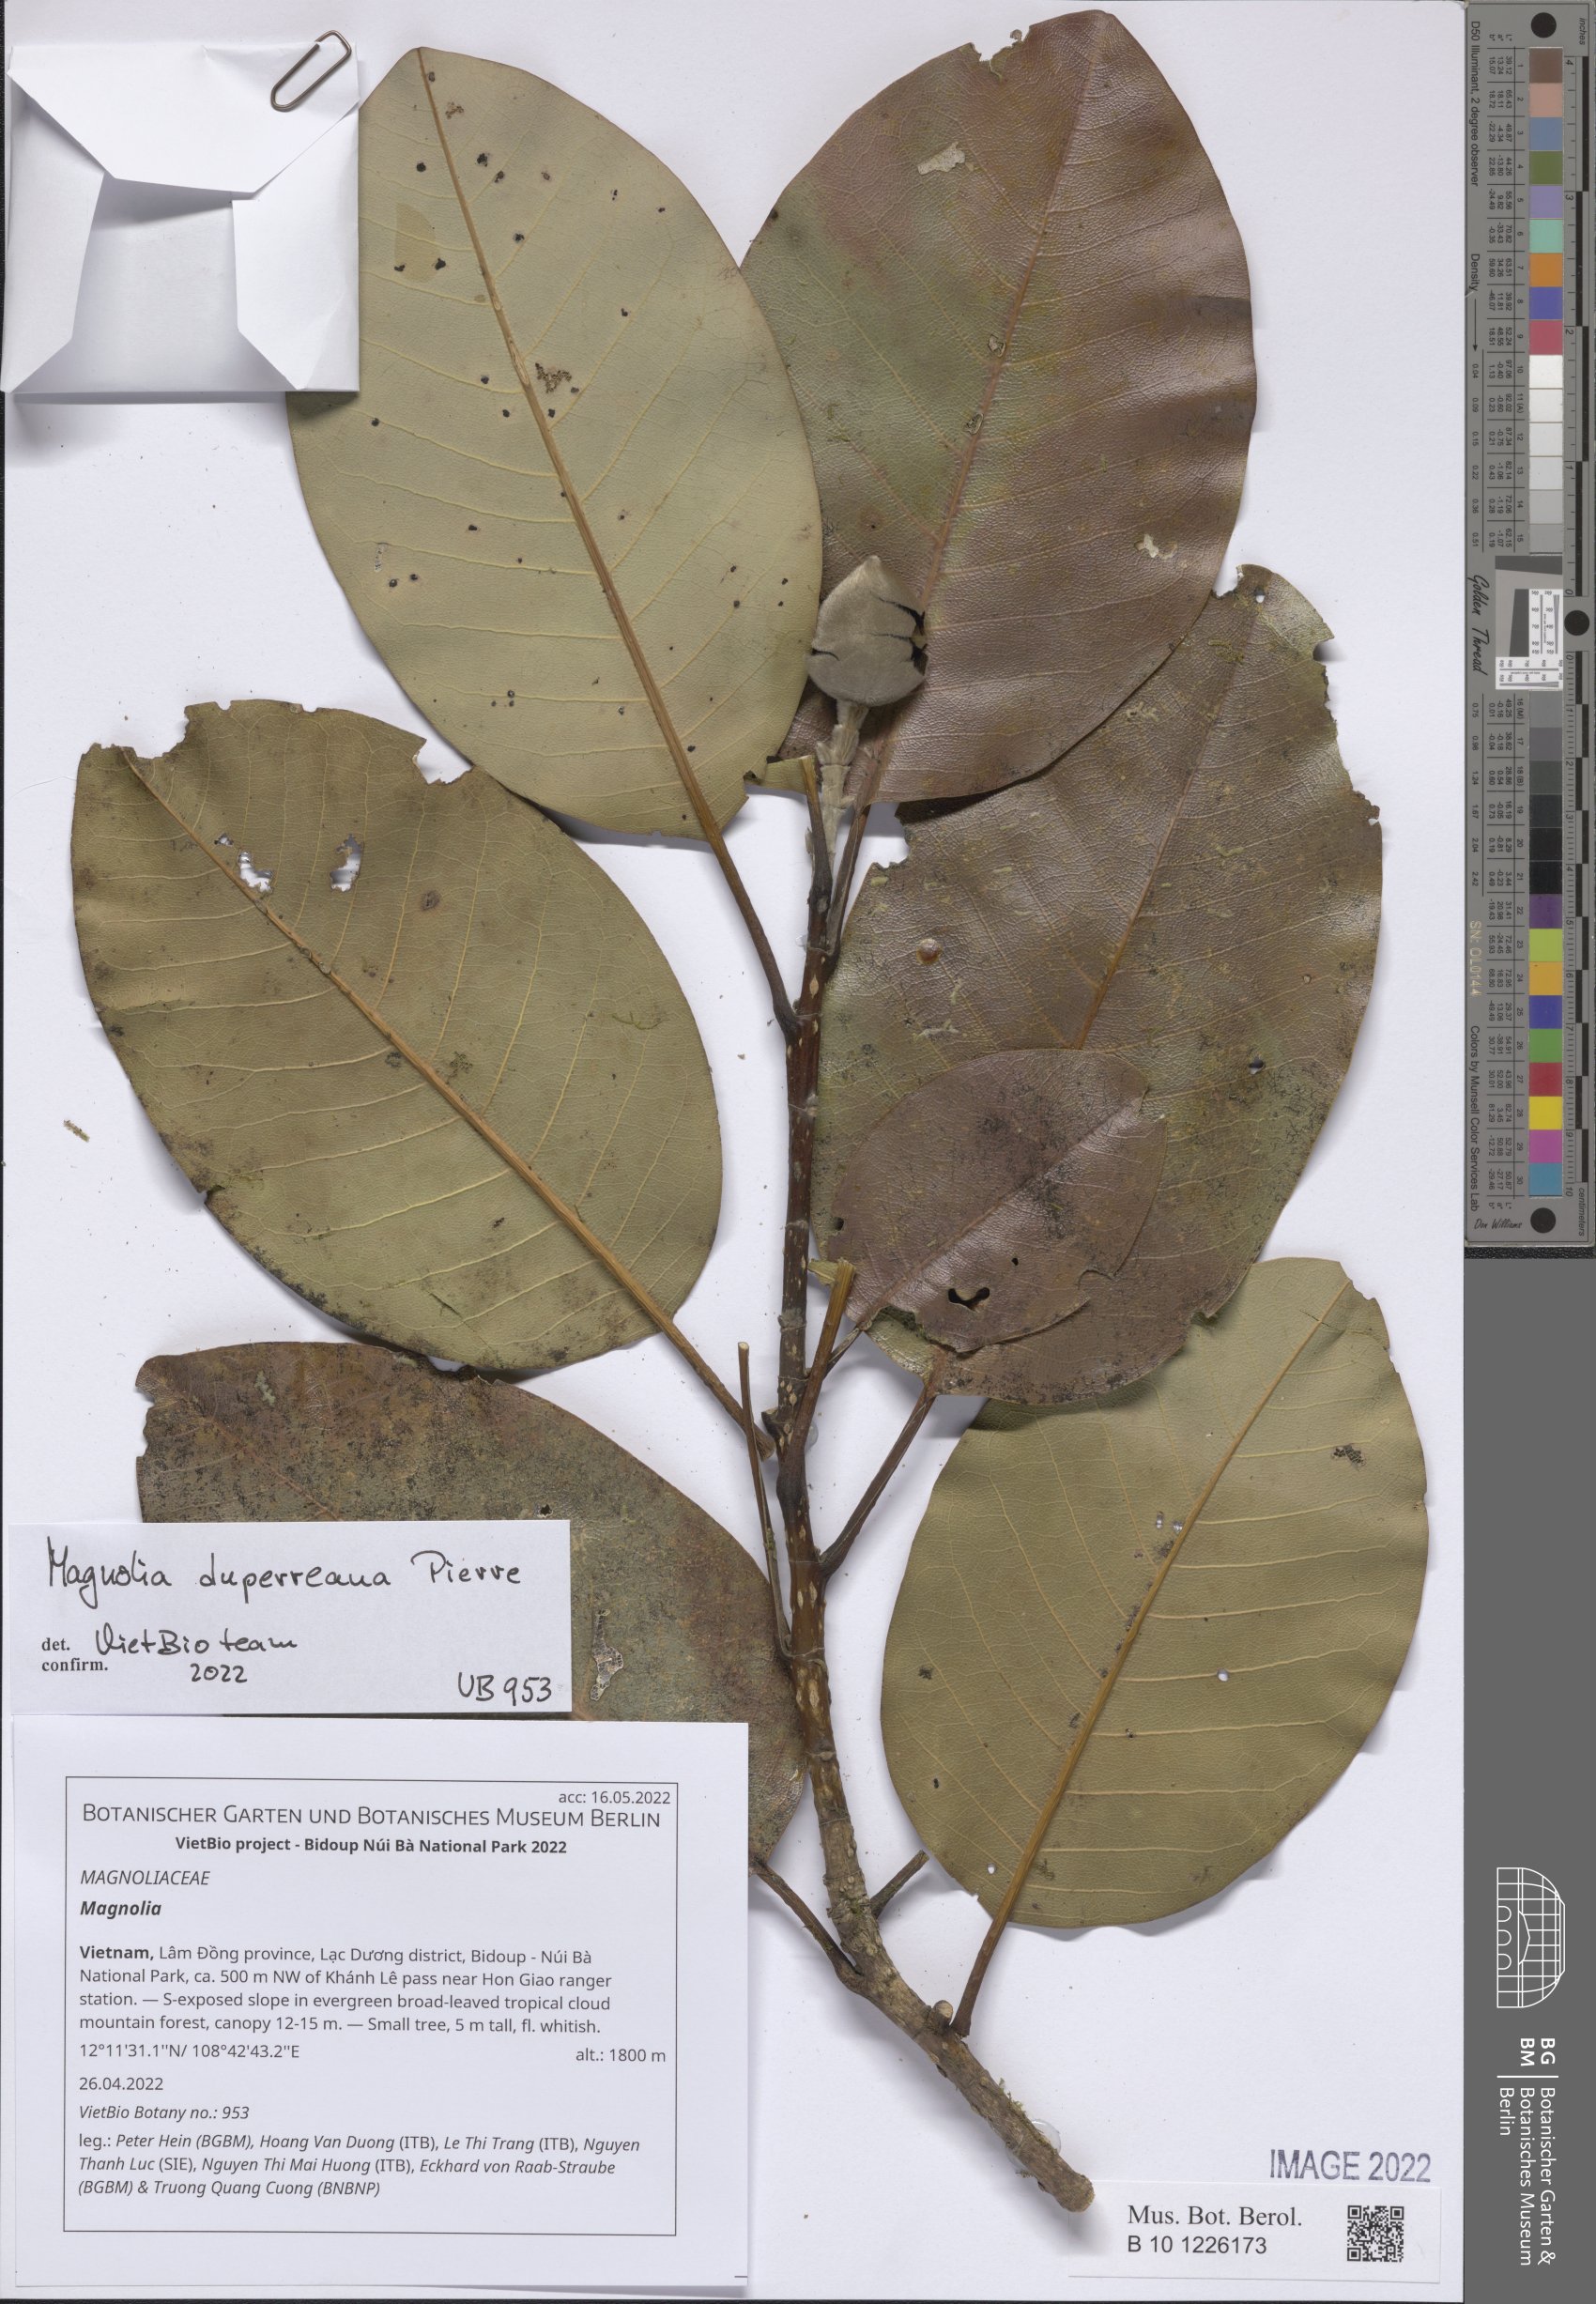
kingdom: Plantae
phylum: Tracheophyta
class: Magnoliopsida
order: Magnoliales
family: Magnoliaceae
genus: Magnolia
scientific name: Magnolia
